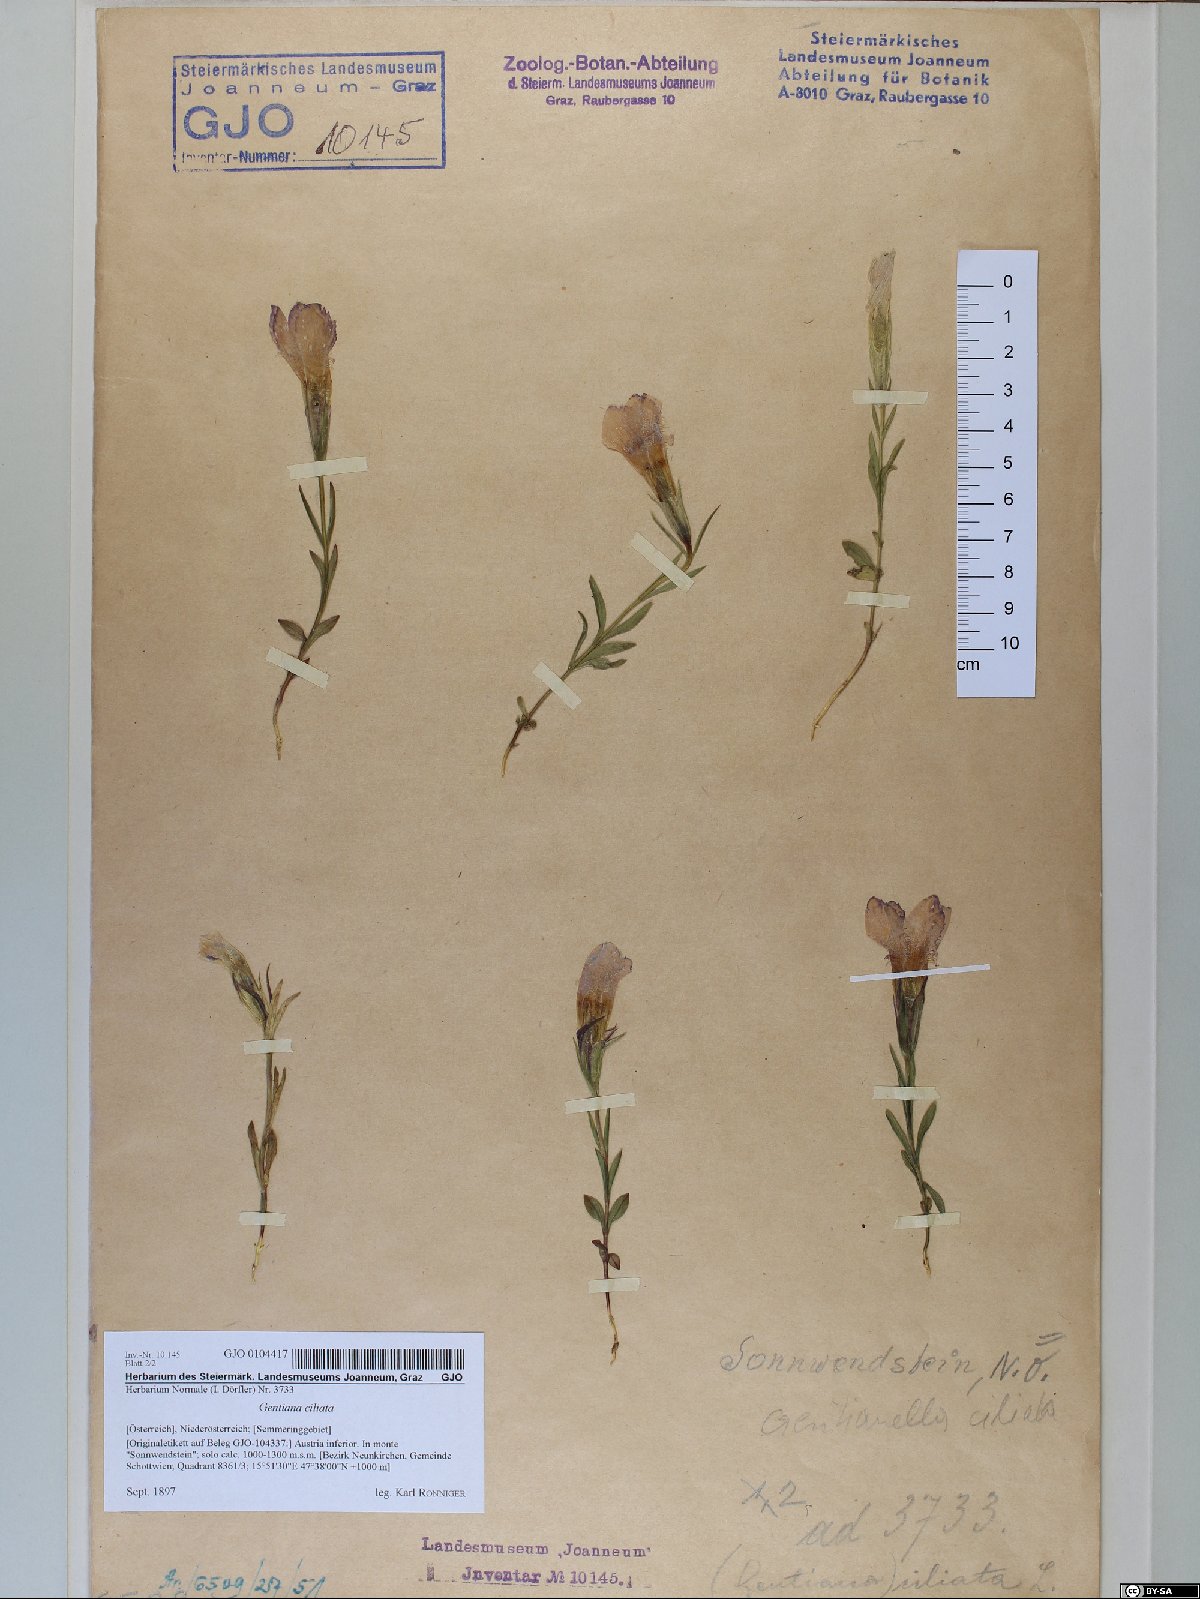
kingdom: Plantae
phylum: Tracheophyta
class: Magnoliopsida
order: Gentianales
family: Gentianaceae
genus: Gentianopsis
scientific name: Gentianopsis ciliata
